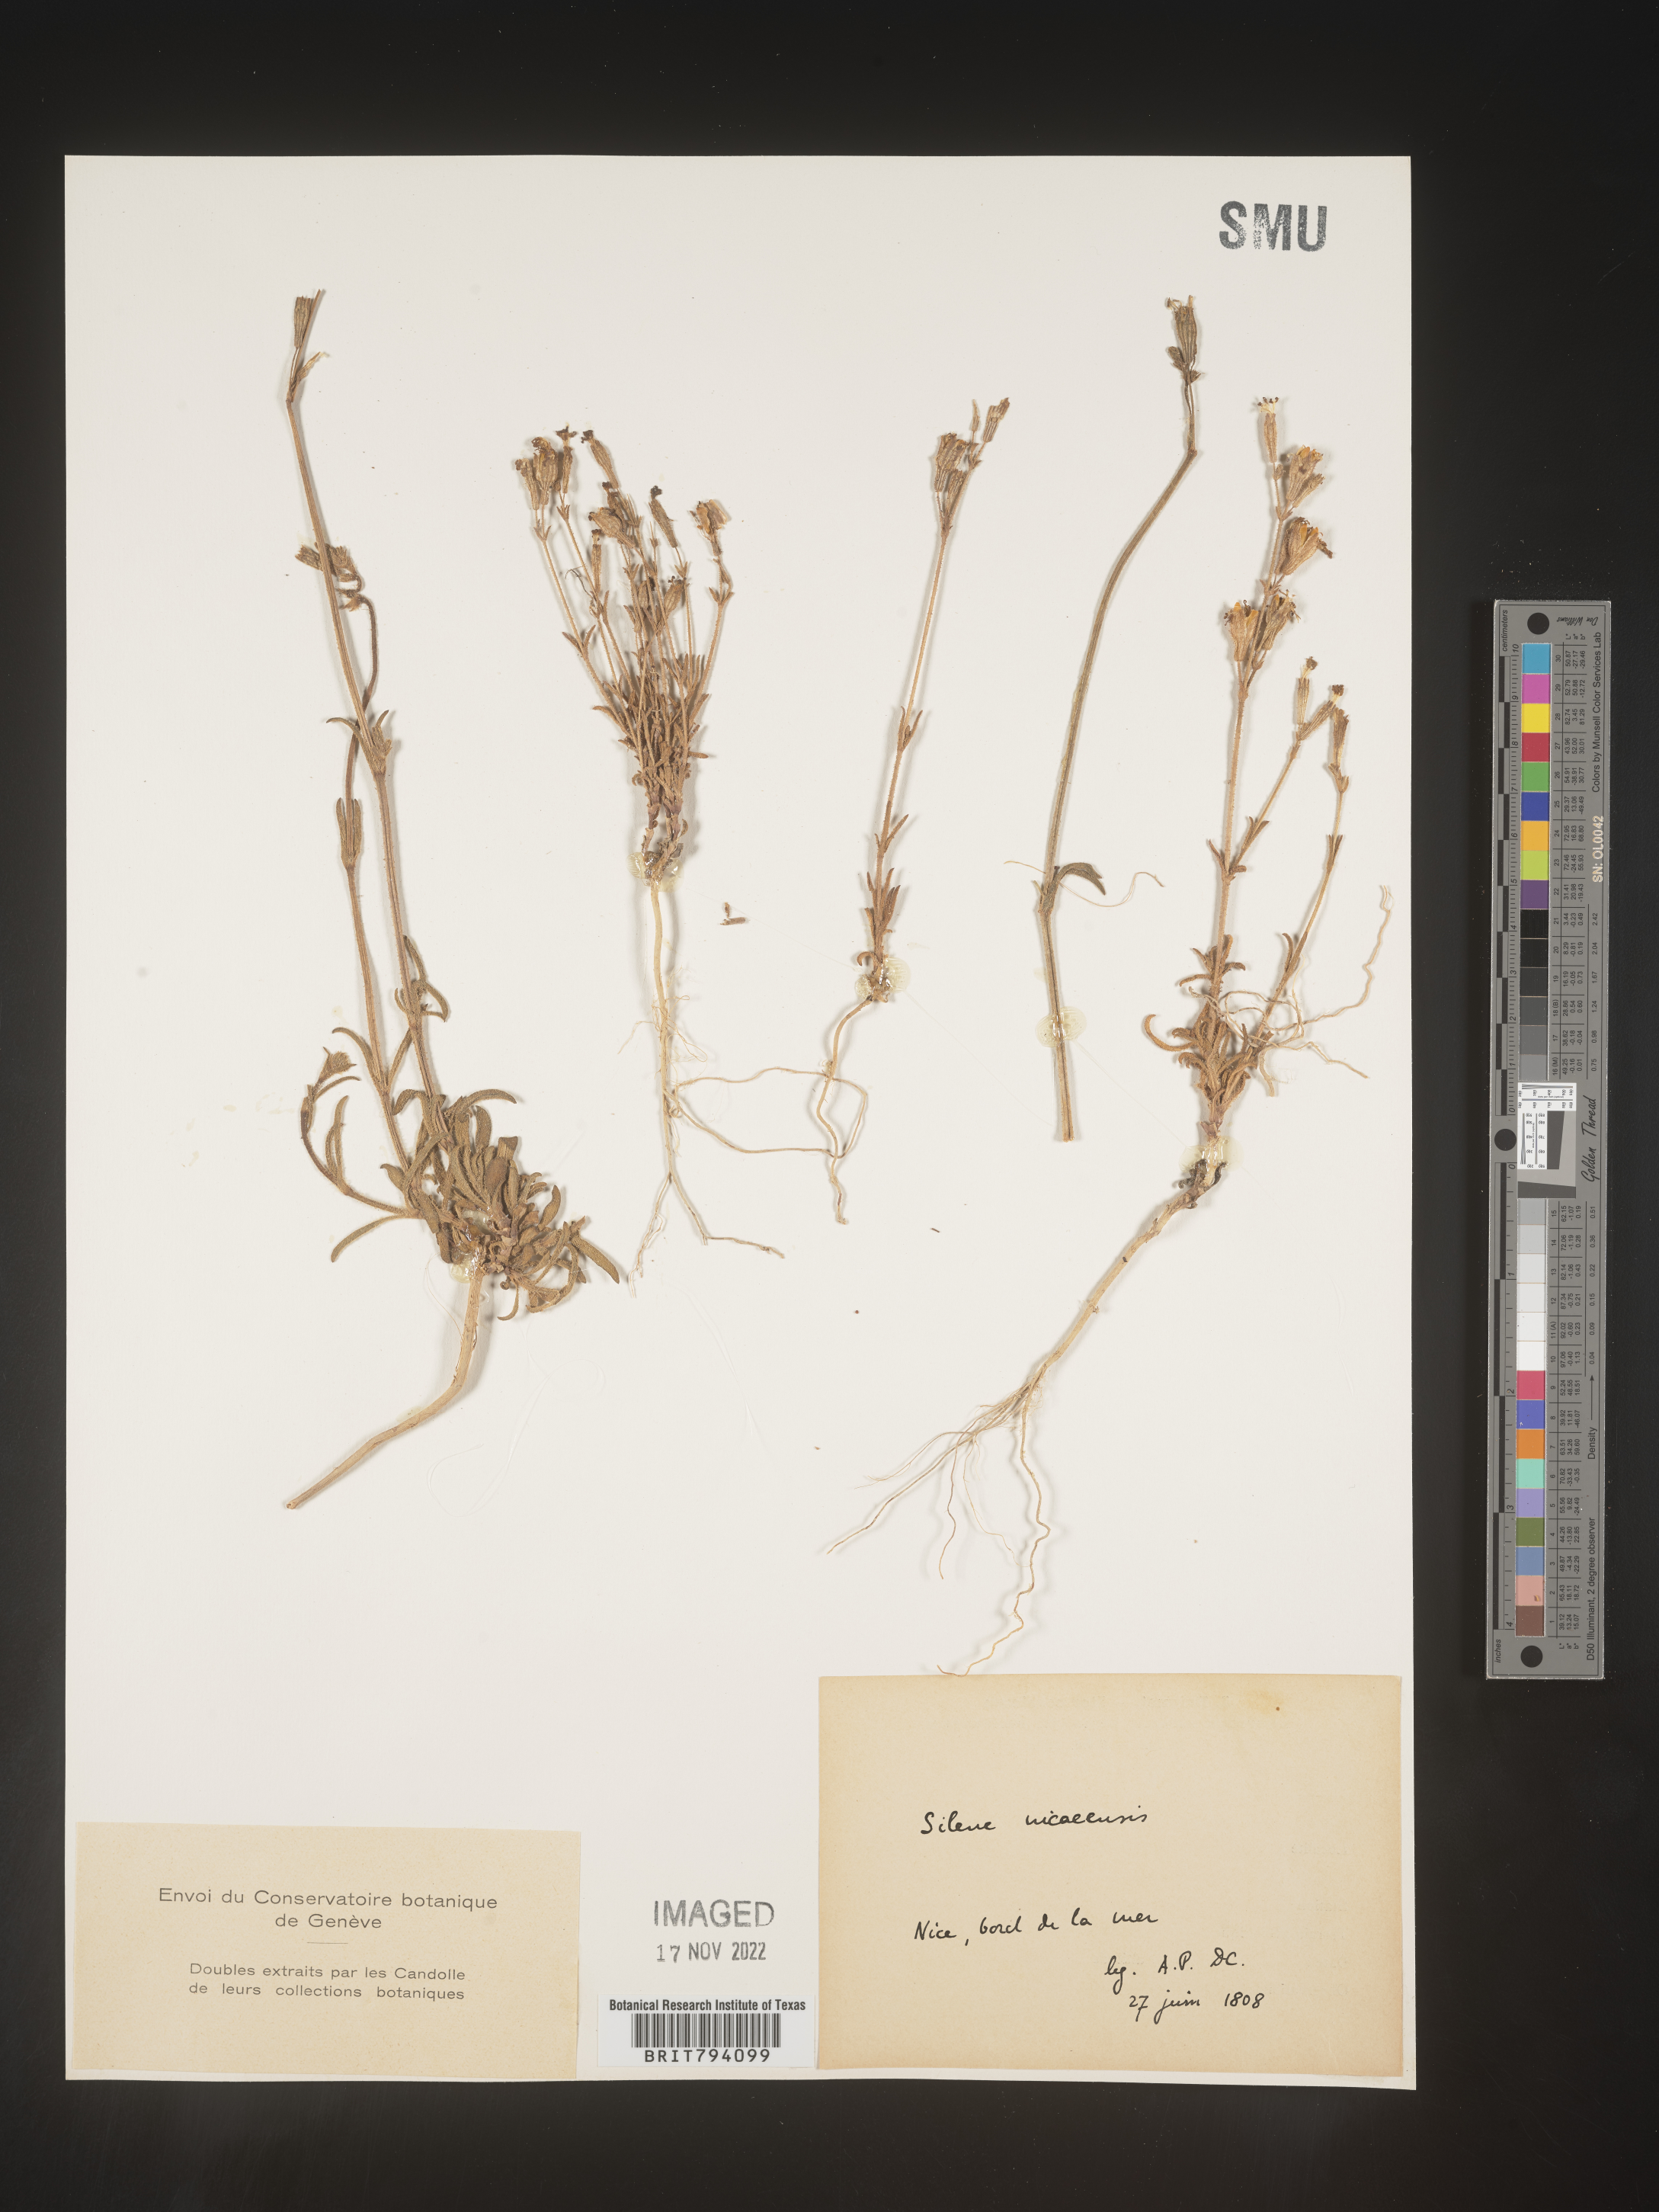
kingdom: Plantae
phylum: Tracheophyta
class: Magnoliopsida
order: Caryophyllales
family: Caryophyllaceae
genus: Silene
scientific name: Silene nicaeensis
